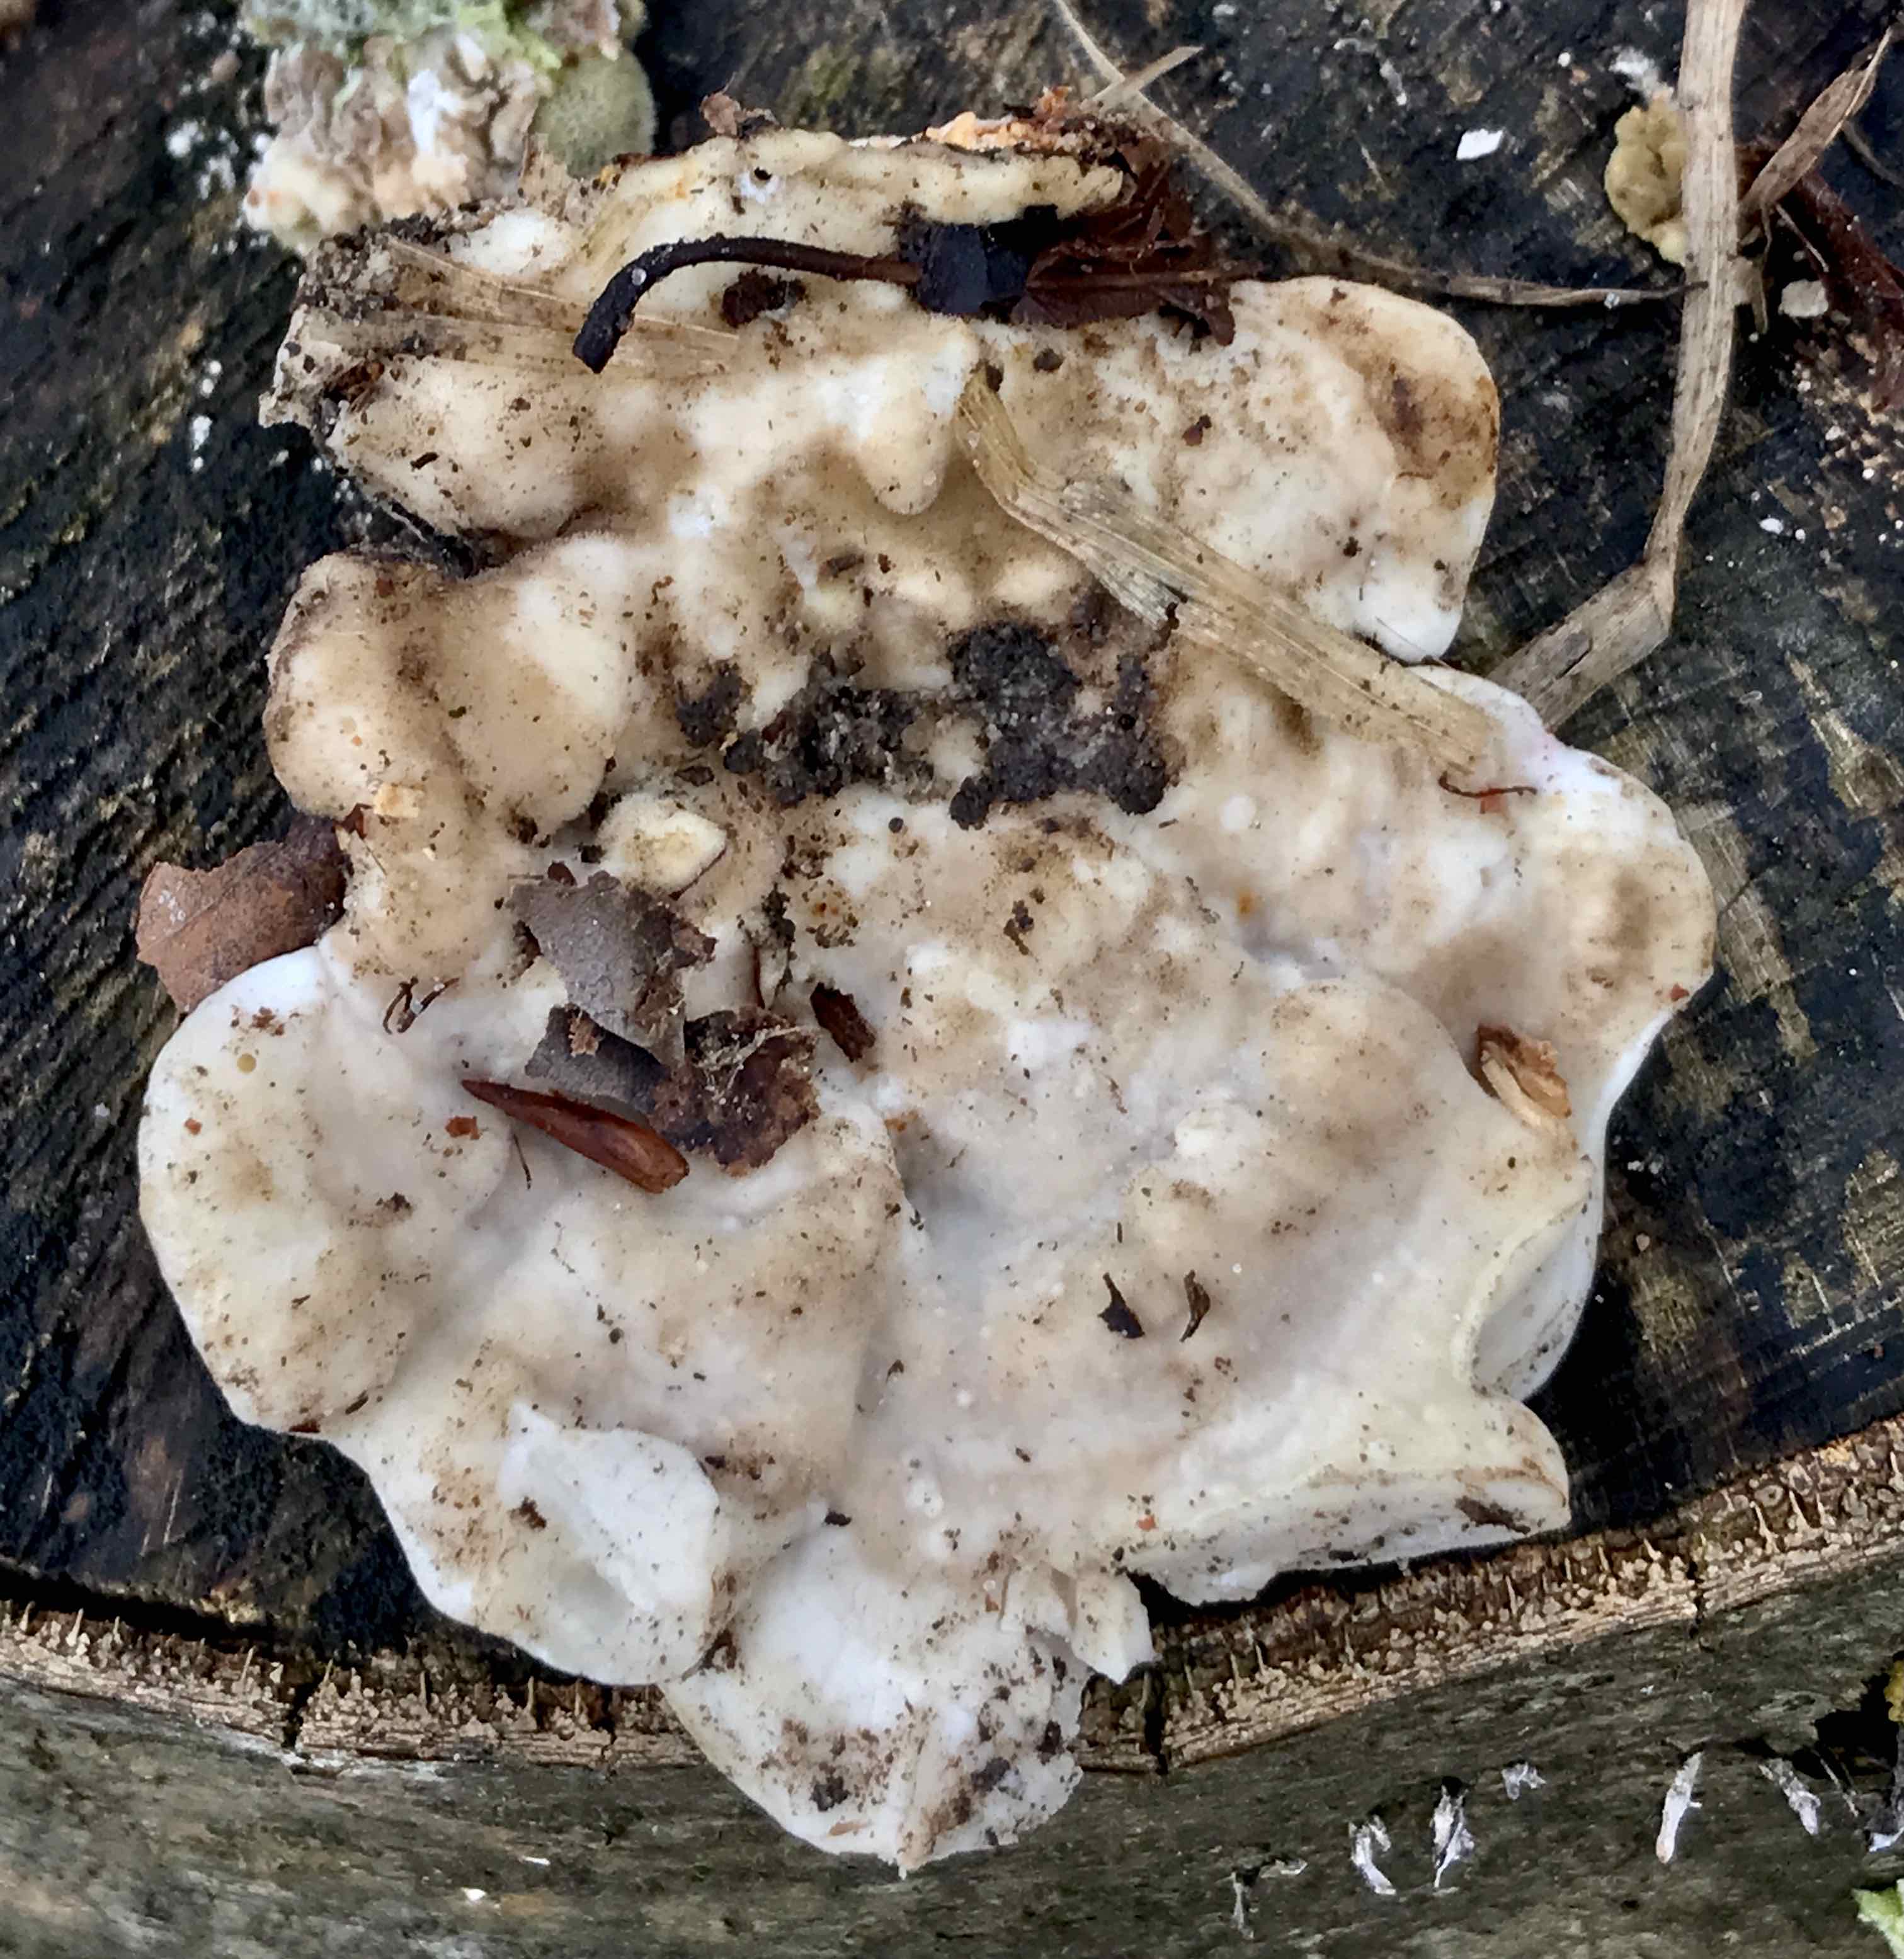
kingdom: Fungi
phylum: Basidiomycota
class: Agaricomycetes
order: Polyporales
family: Polyporaceae
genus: Trametes
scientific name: Trametes gibbosa
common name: puklet læderporesvamp
